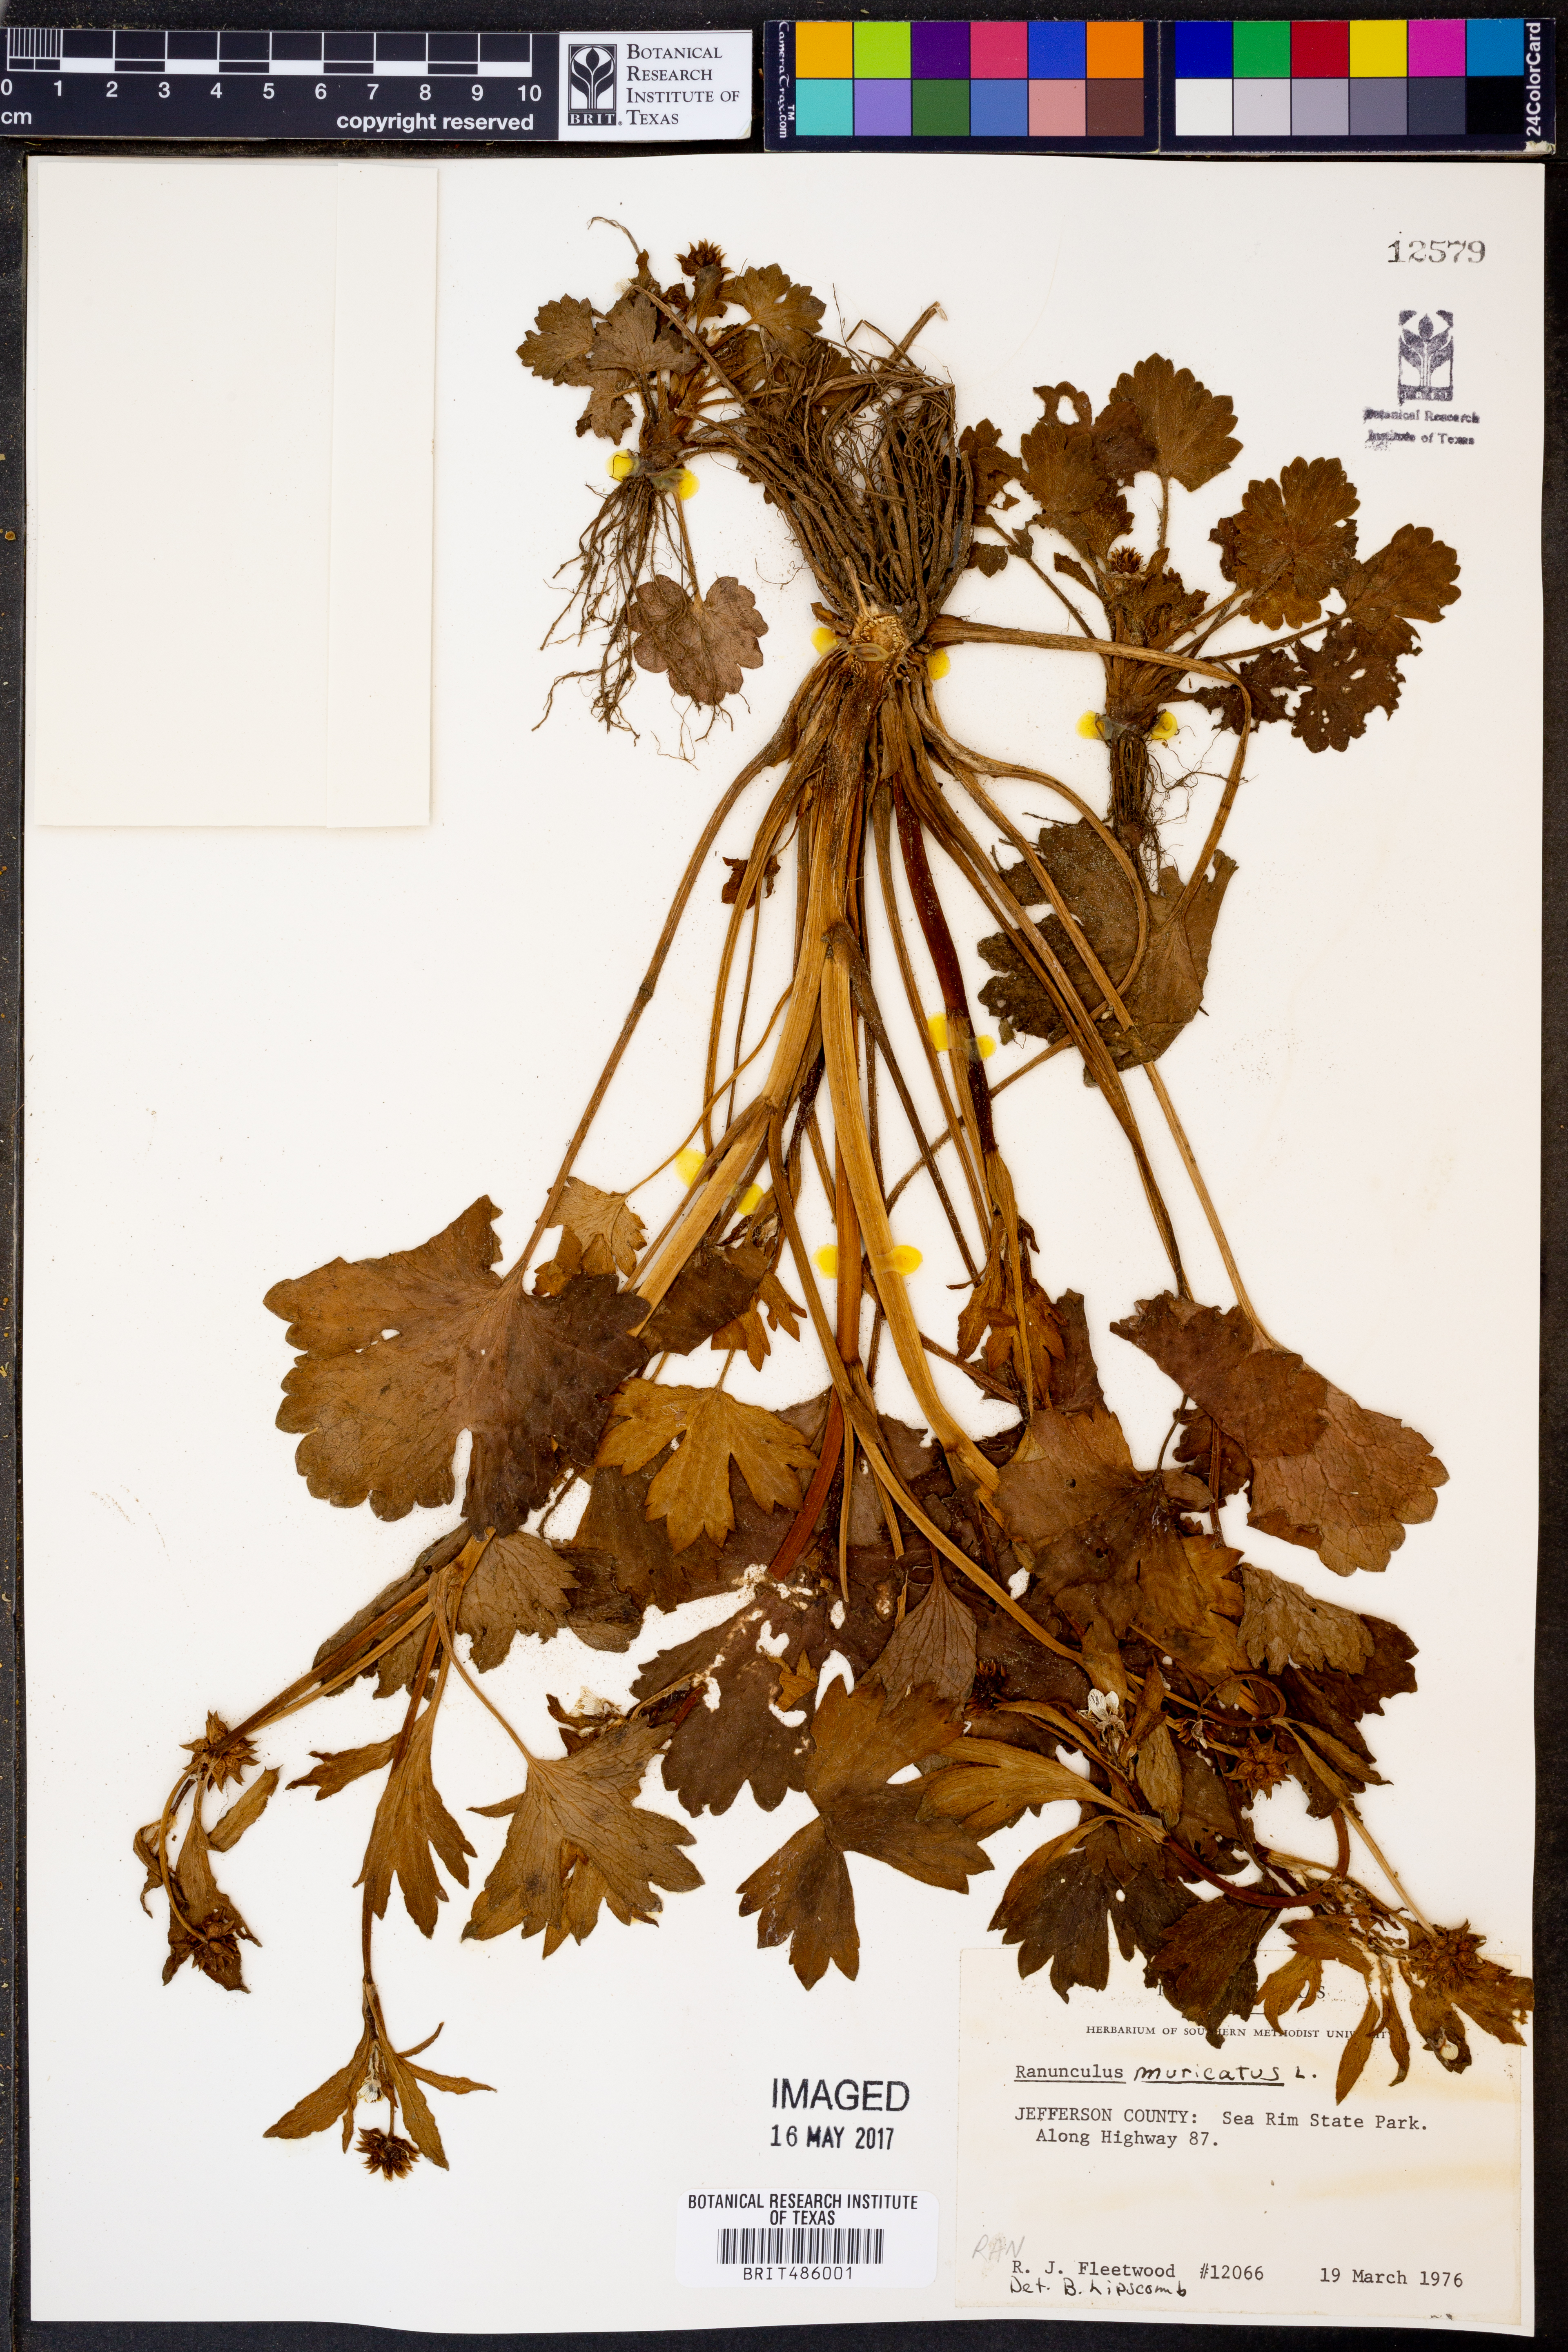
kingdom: Plantae
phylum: Tracheophyta
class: Magnoliopsida
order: Ranunculales
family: Ranunculaceae
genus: Ranunculus
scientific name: Ranunculus muricatus
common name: Rough-fruited buttercup
